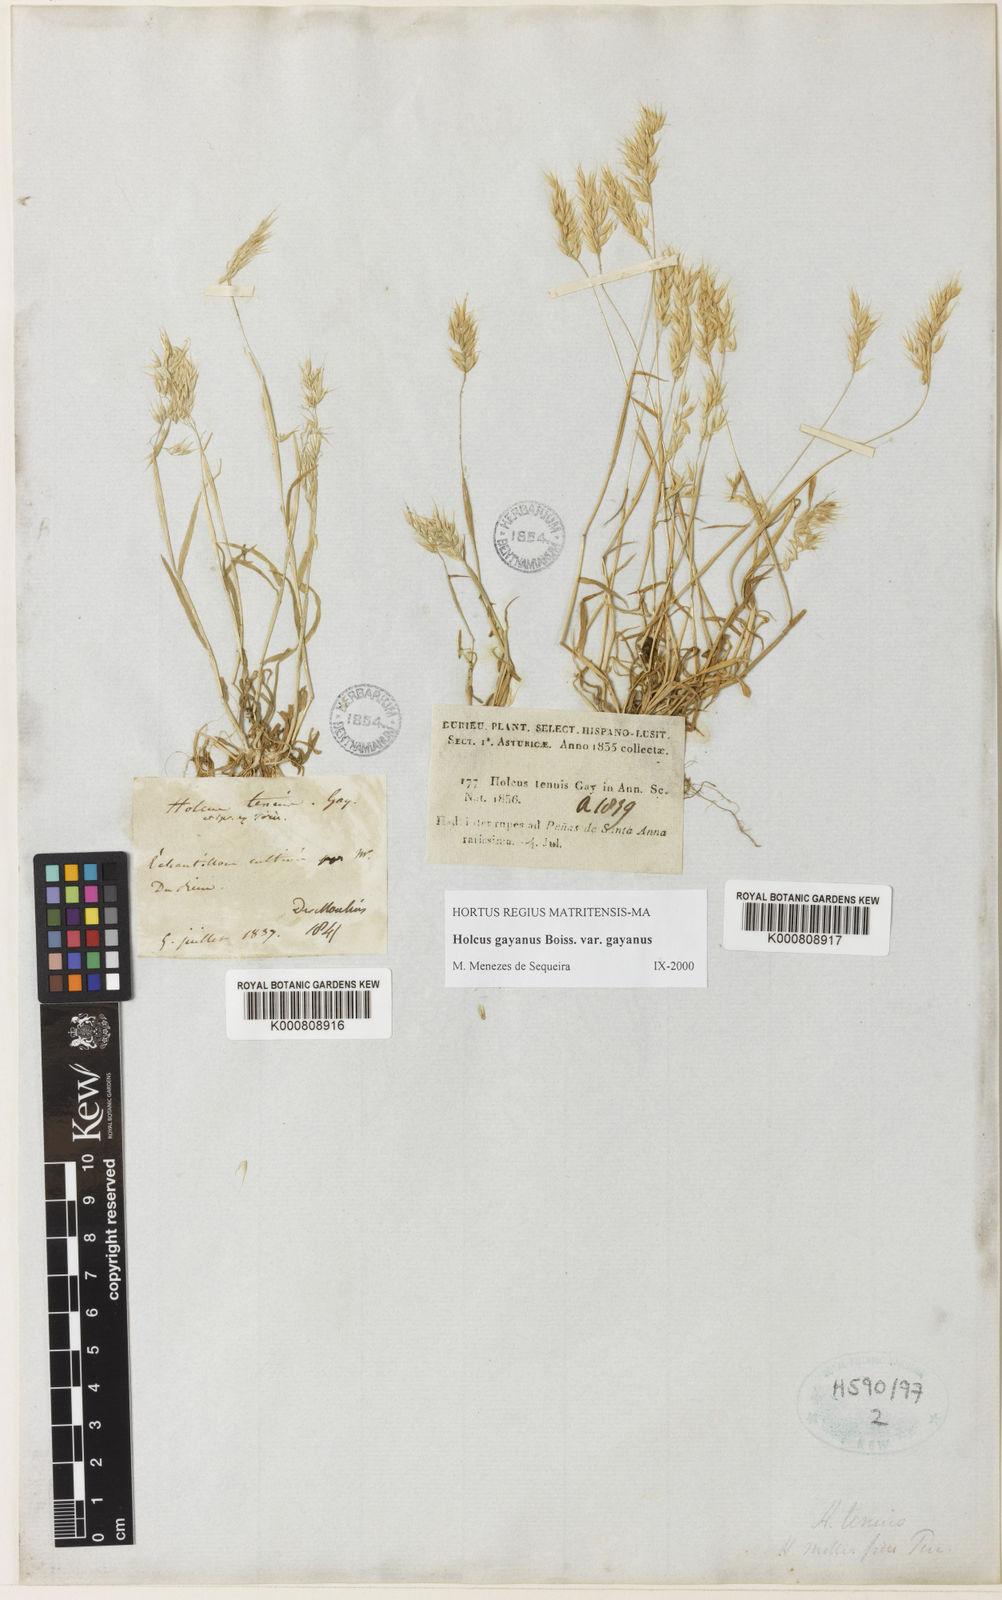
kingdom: Plantae
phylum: Tracheophyta
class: Liliopsida
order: Poales
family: Poaceae
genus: Holcus
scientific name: Holcus mollis
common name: Creeping velvetgrass
